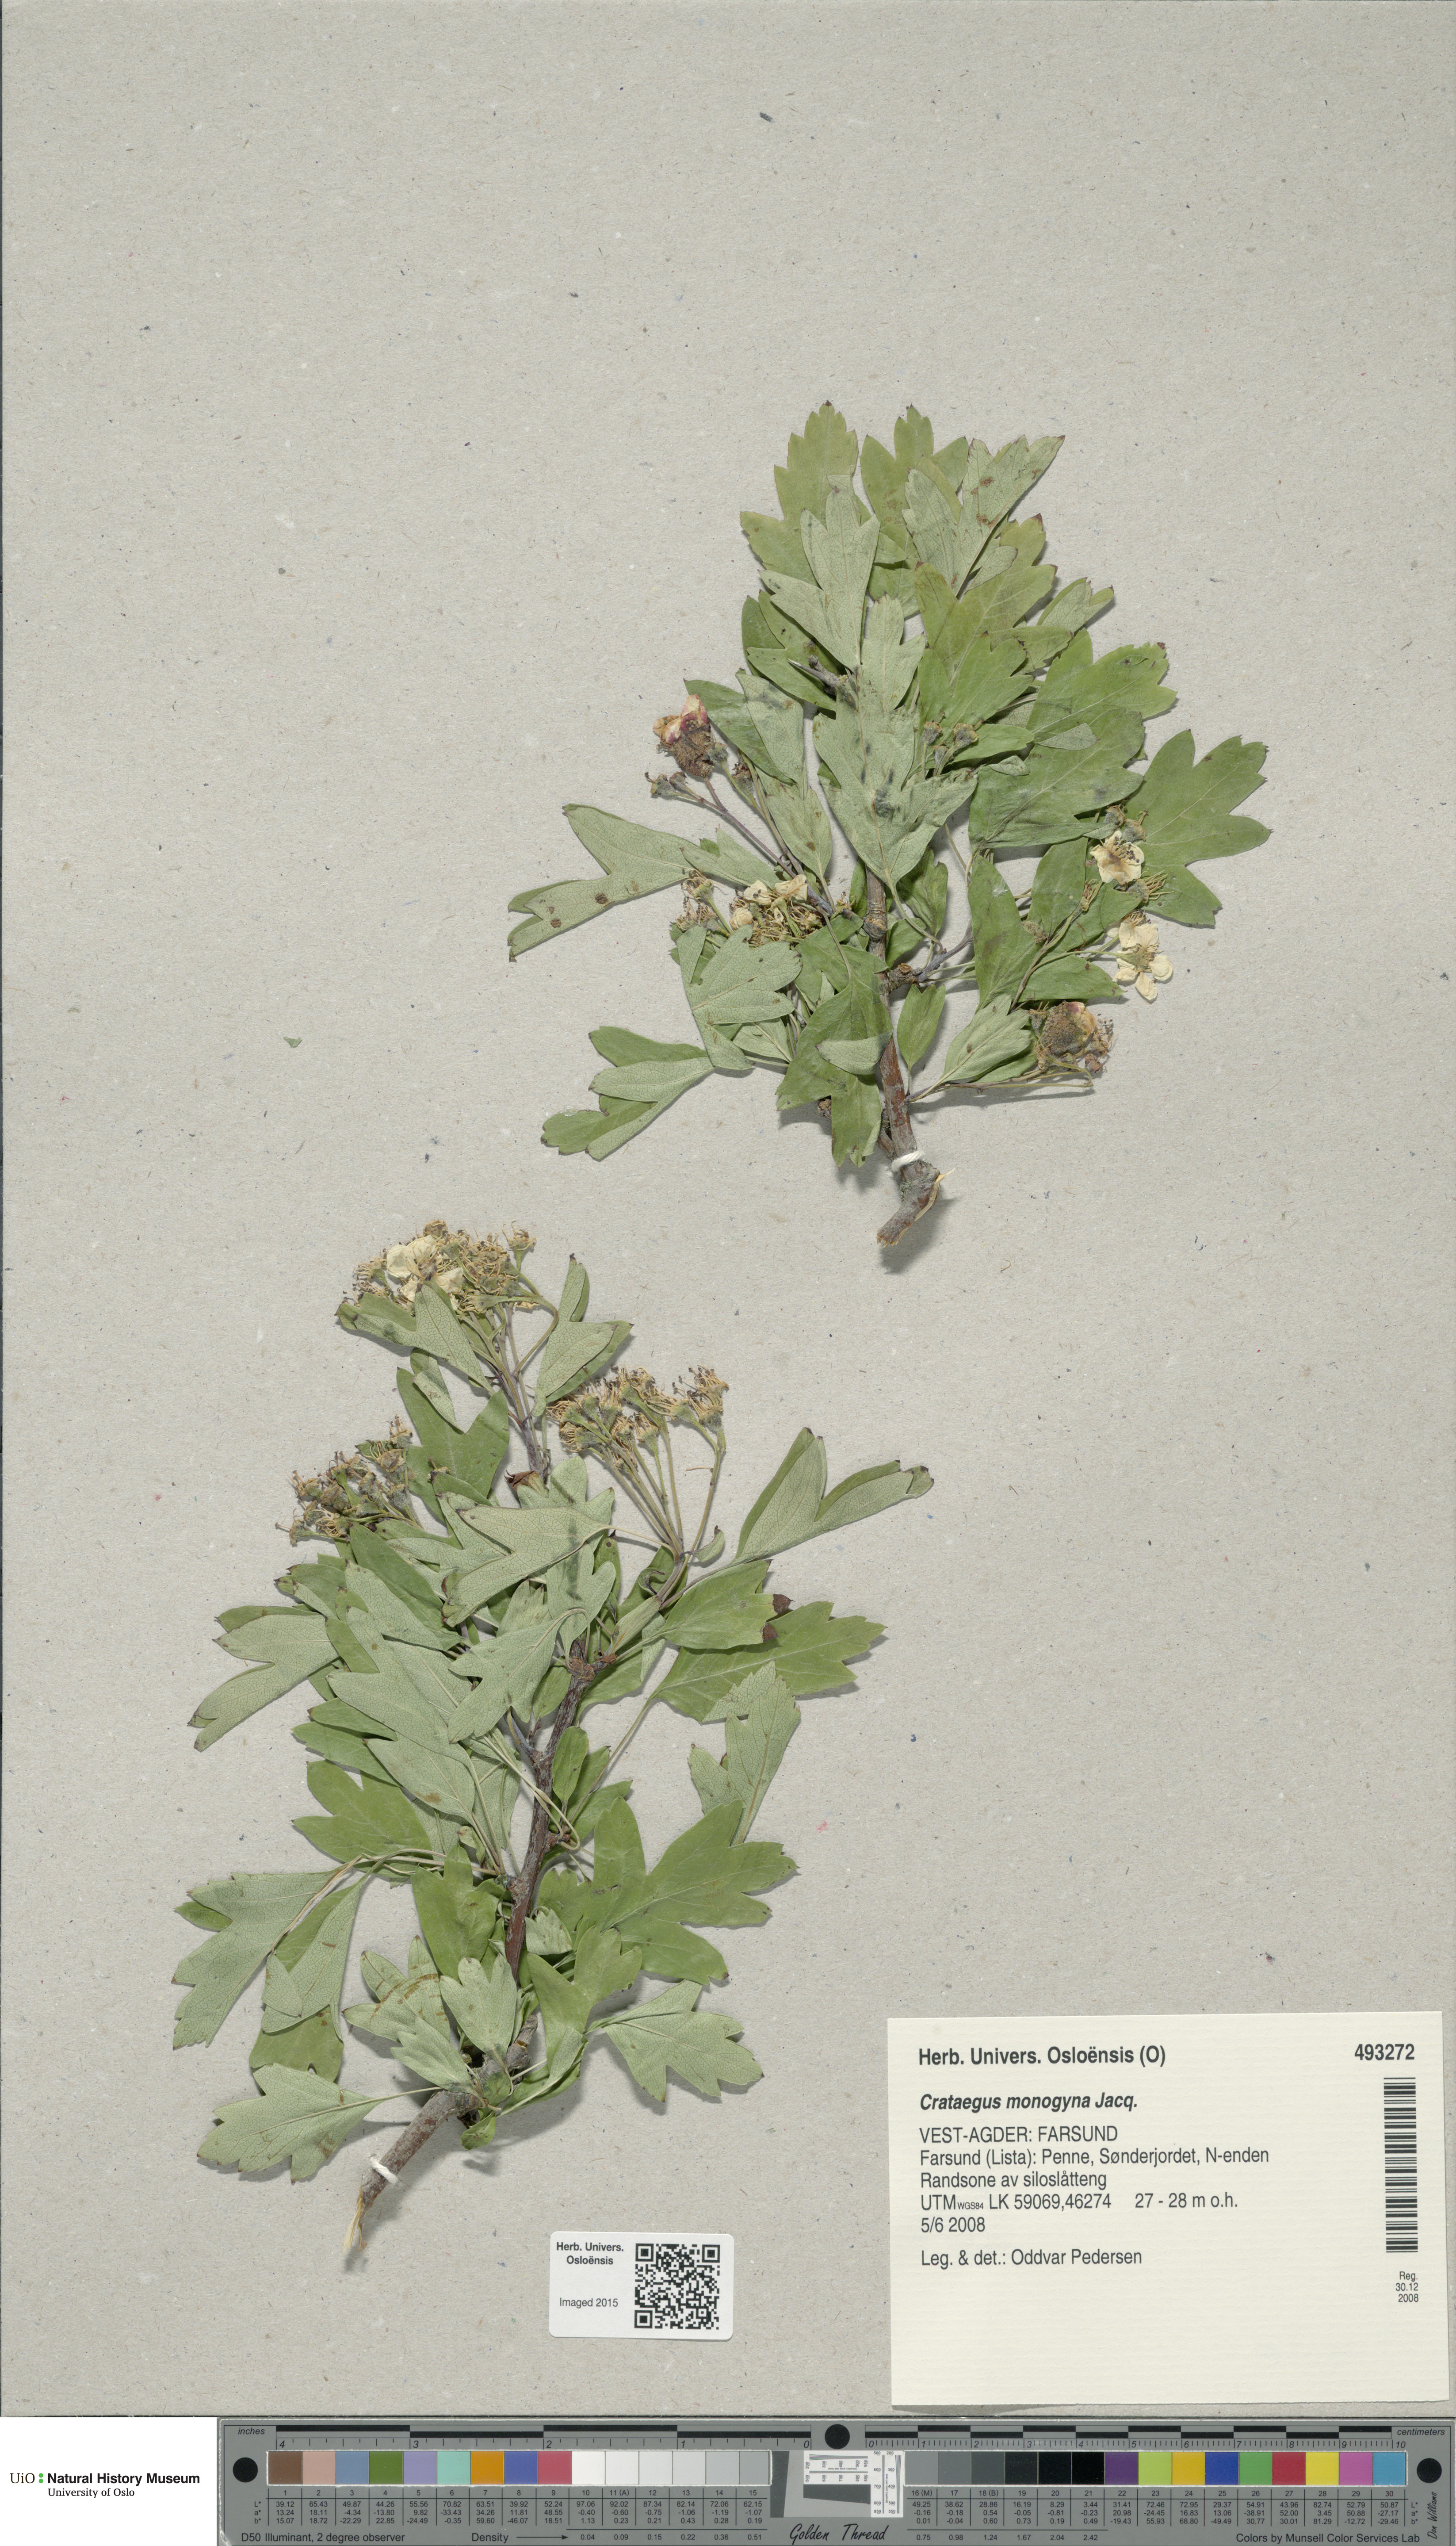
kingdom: Plantae
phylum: Tracheophyta
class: Magnoliopsida
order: Rosales
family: Rosaceae
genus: Crataegus
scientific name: Crataegus monogyna
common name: Hawthorn
